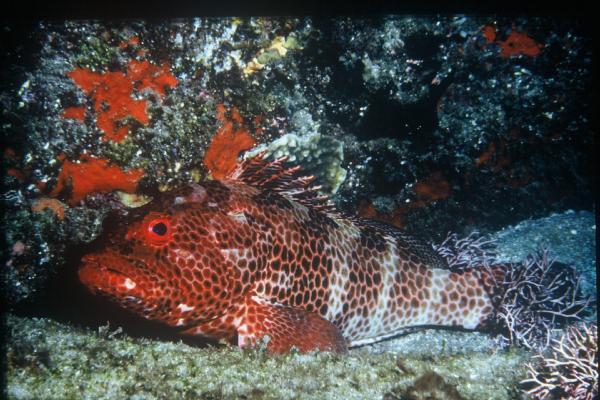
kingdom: Animalia
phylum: Chordata
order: Perciformes
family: Serranidae
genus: Epinephelus
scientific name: Epinephelus posteli
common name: Striped-fin grouper
